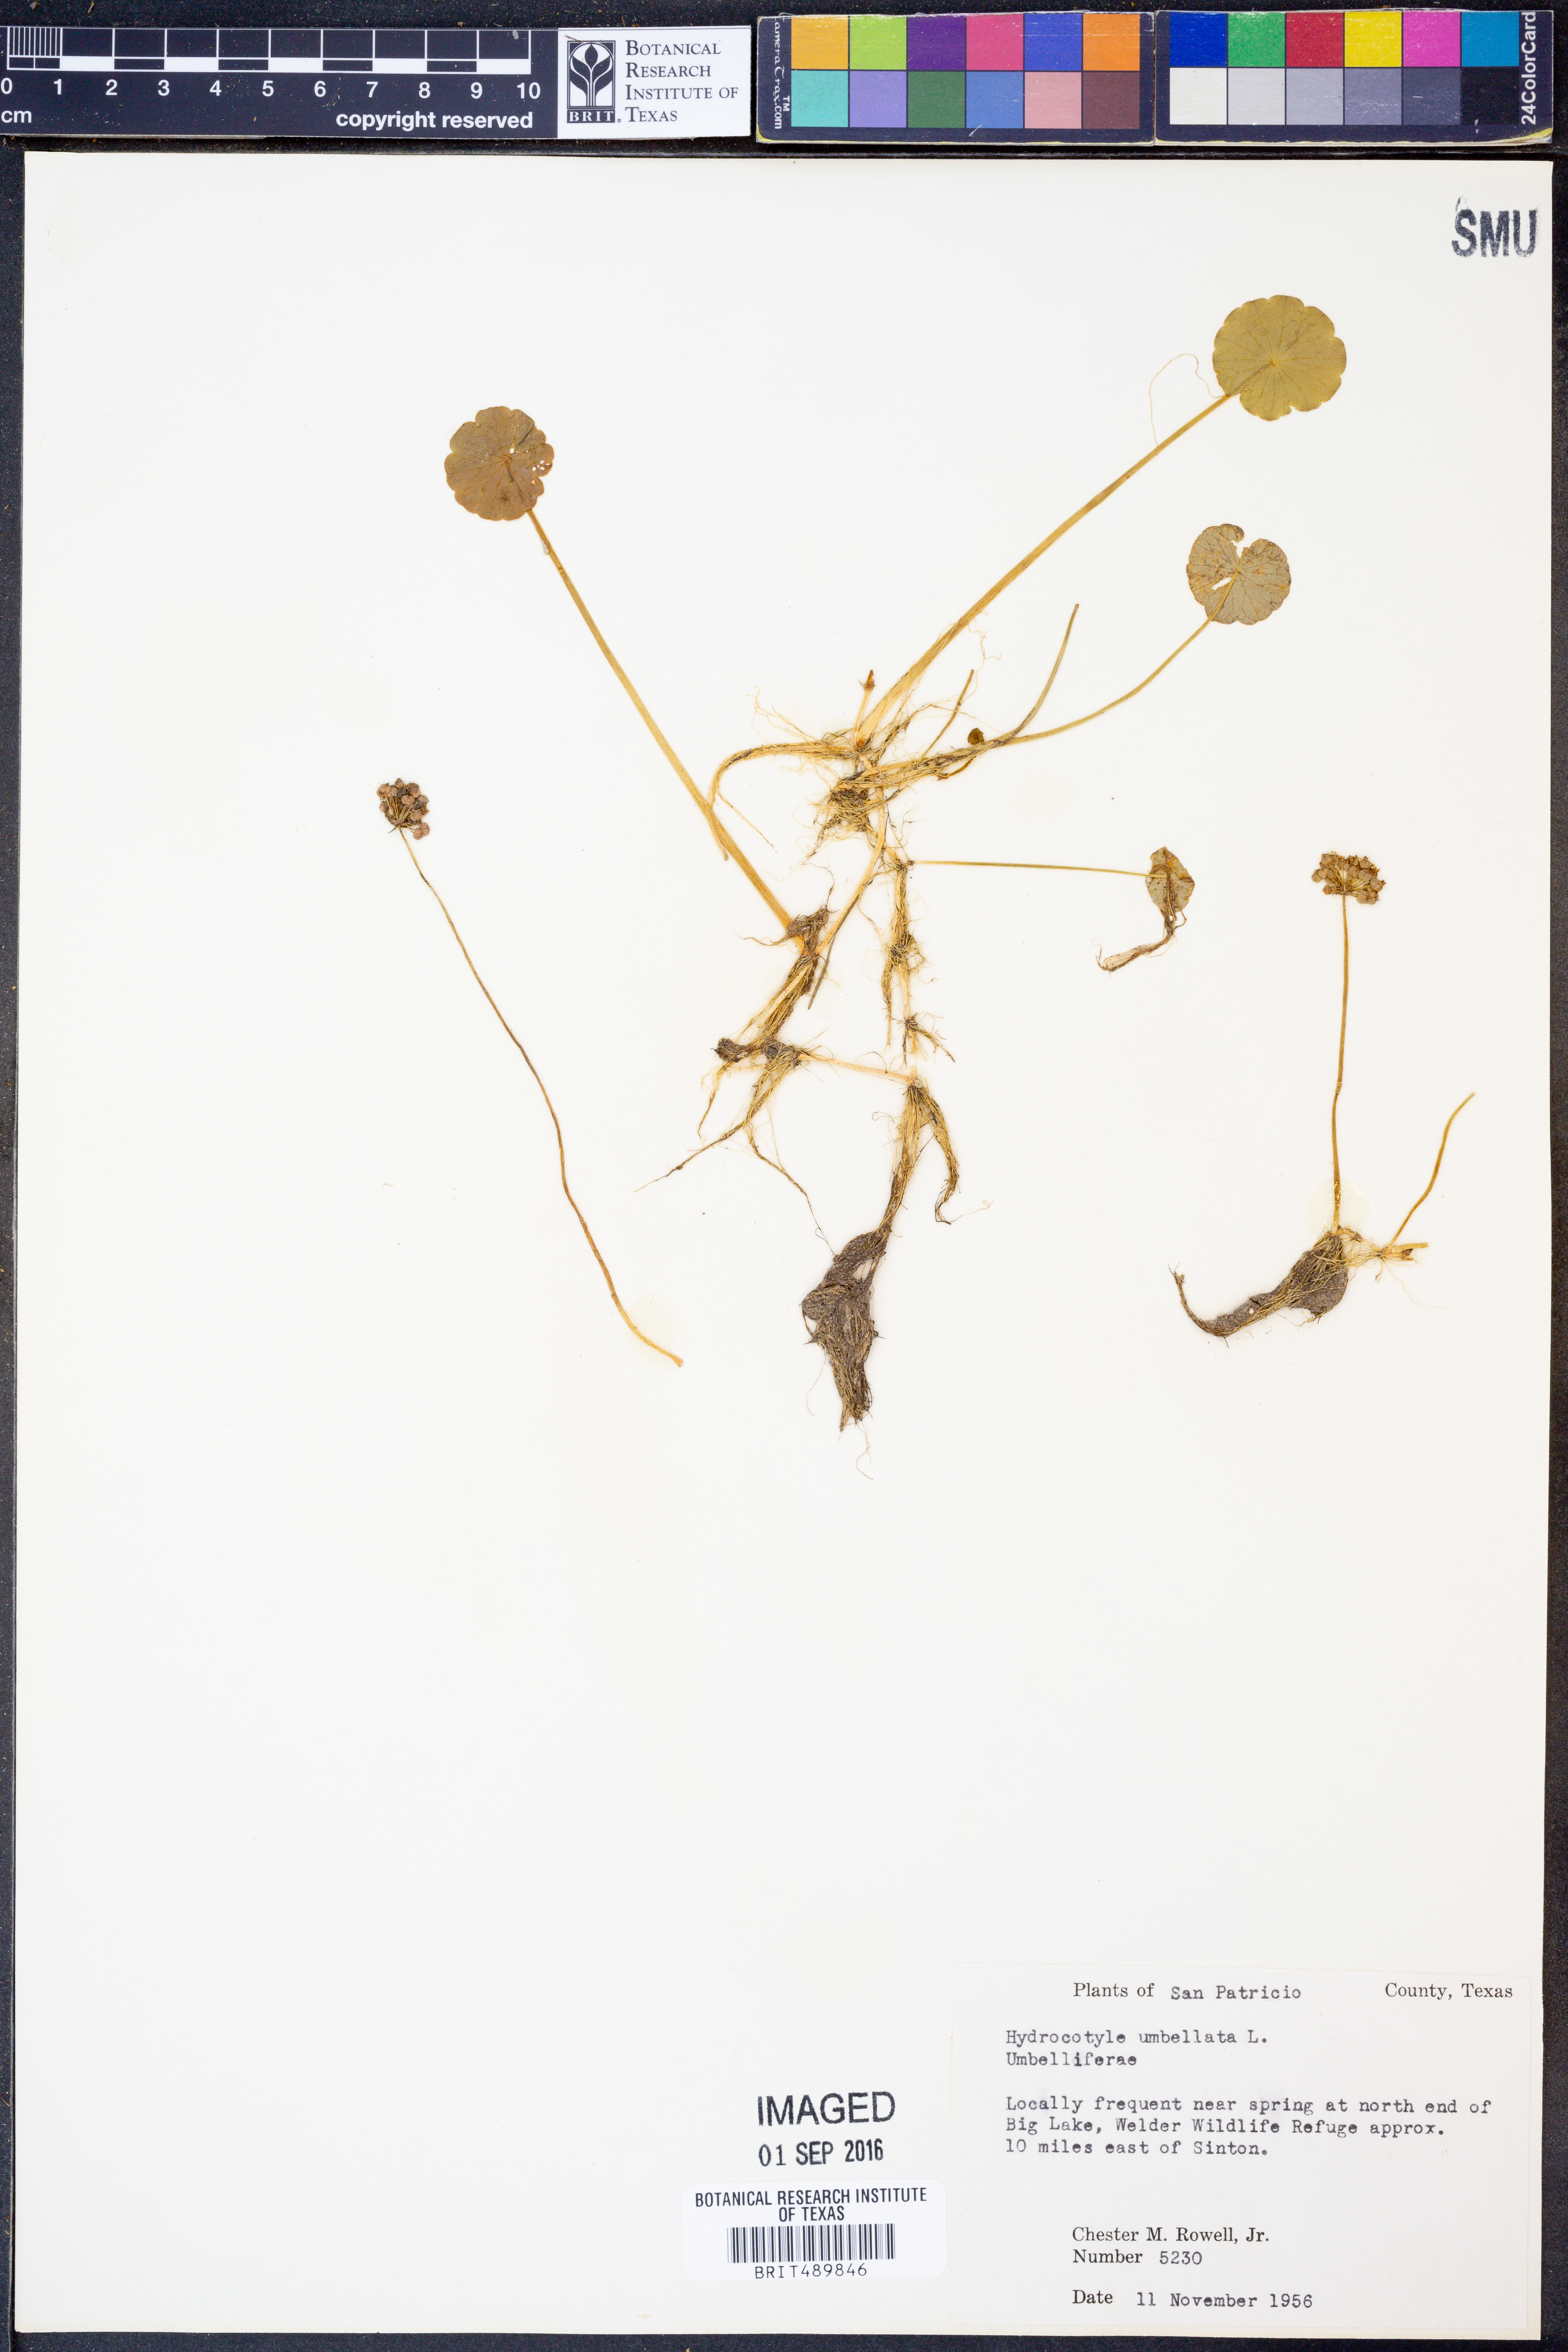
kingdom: Plantae
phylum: Tracheophyta
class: Magnoliopsida
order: Apiales
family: Araliaceae
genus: Hydrocotyle
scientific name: Hydrocotyle umbellata
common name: Water pennywort
